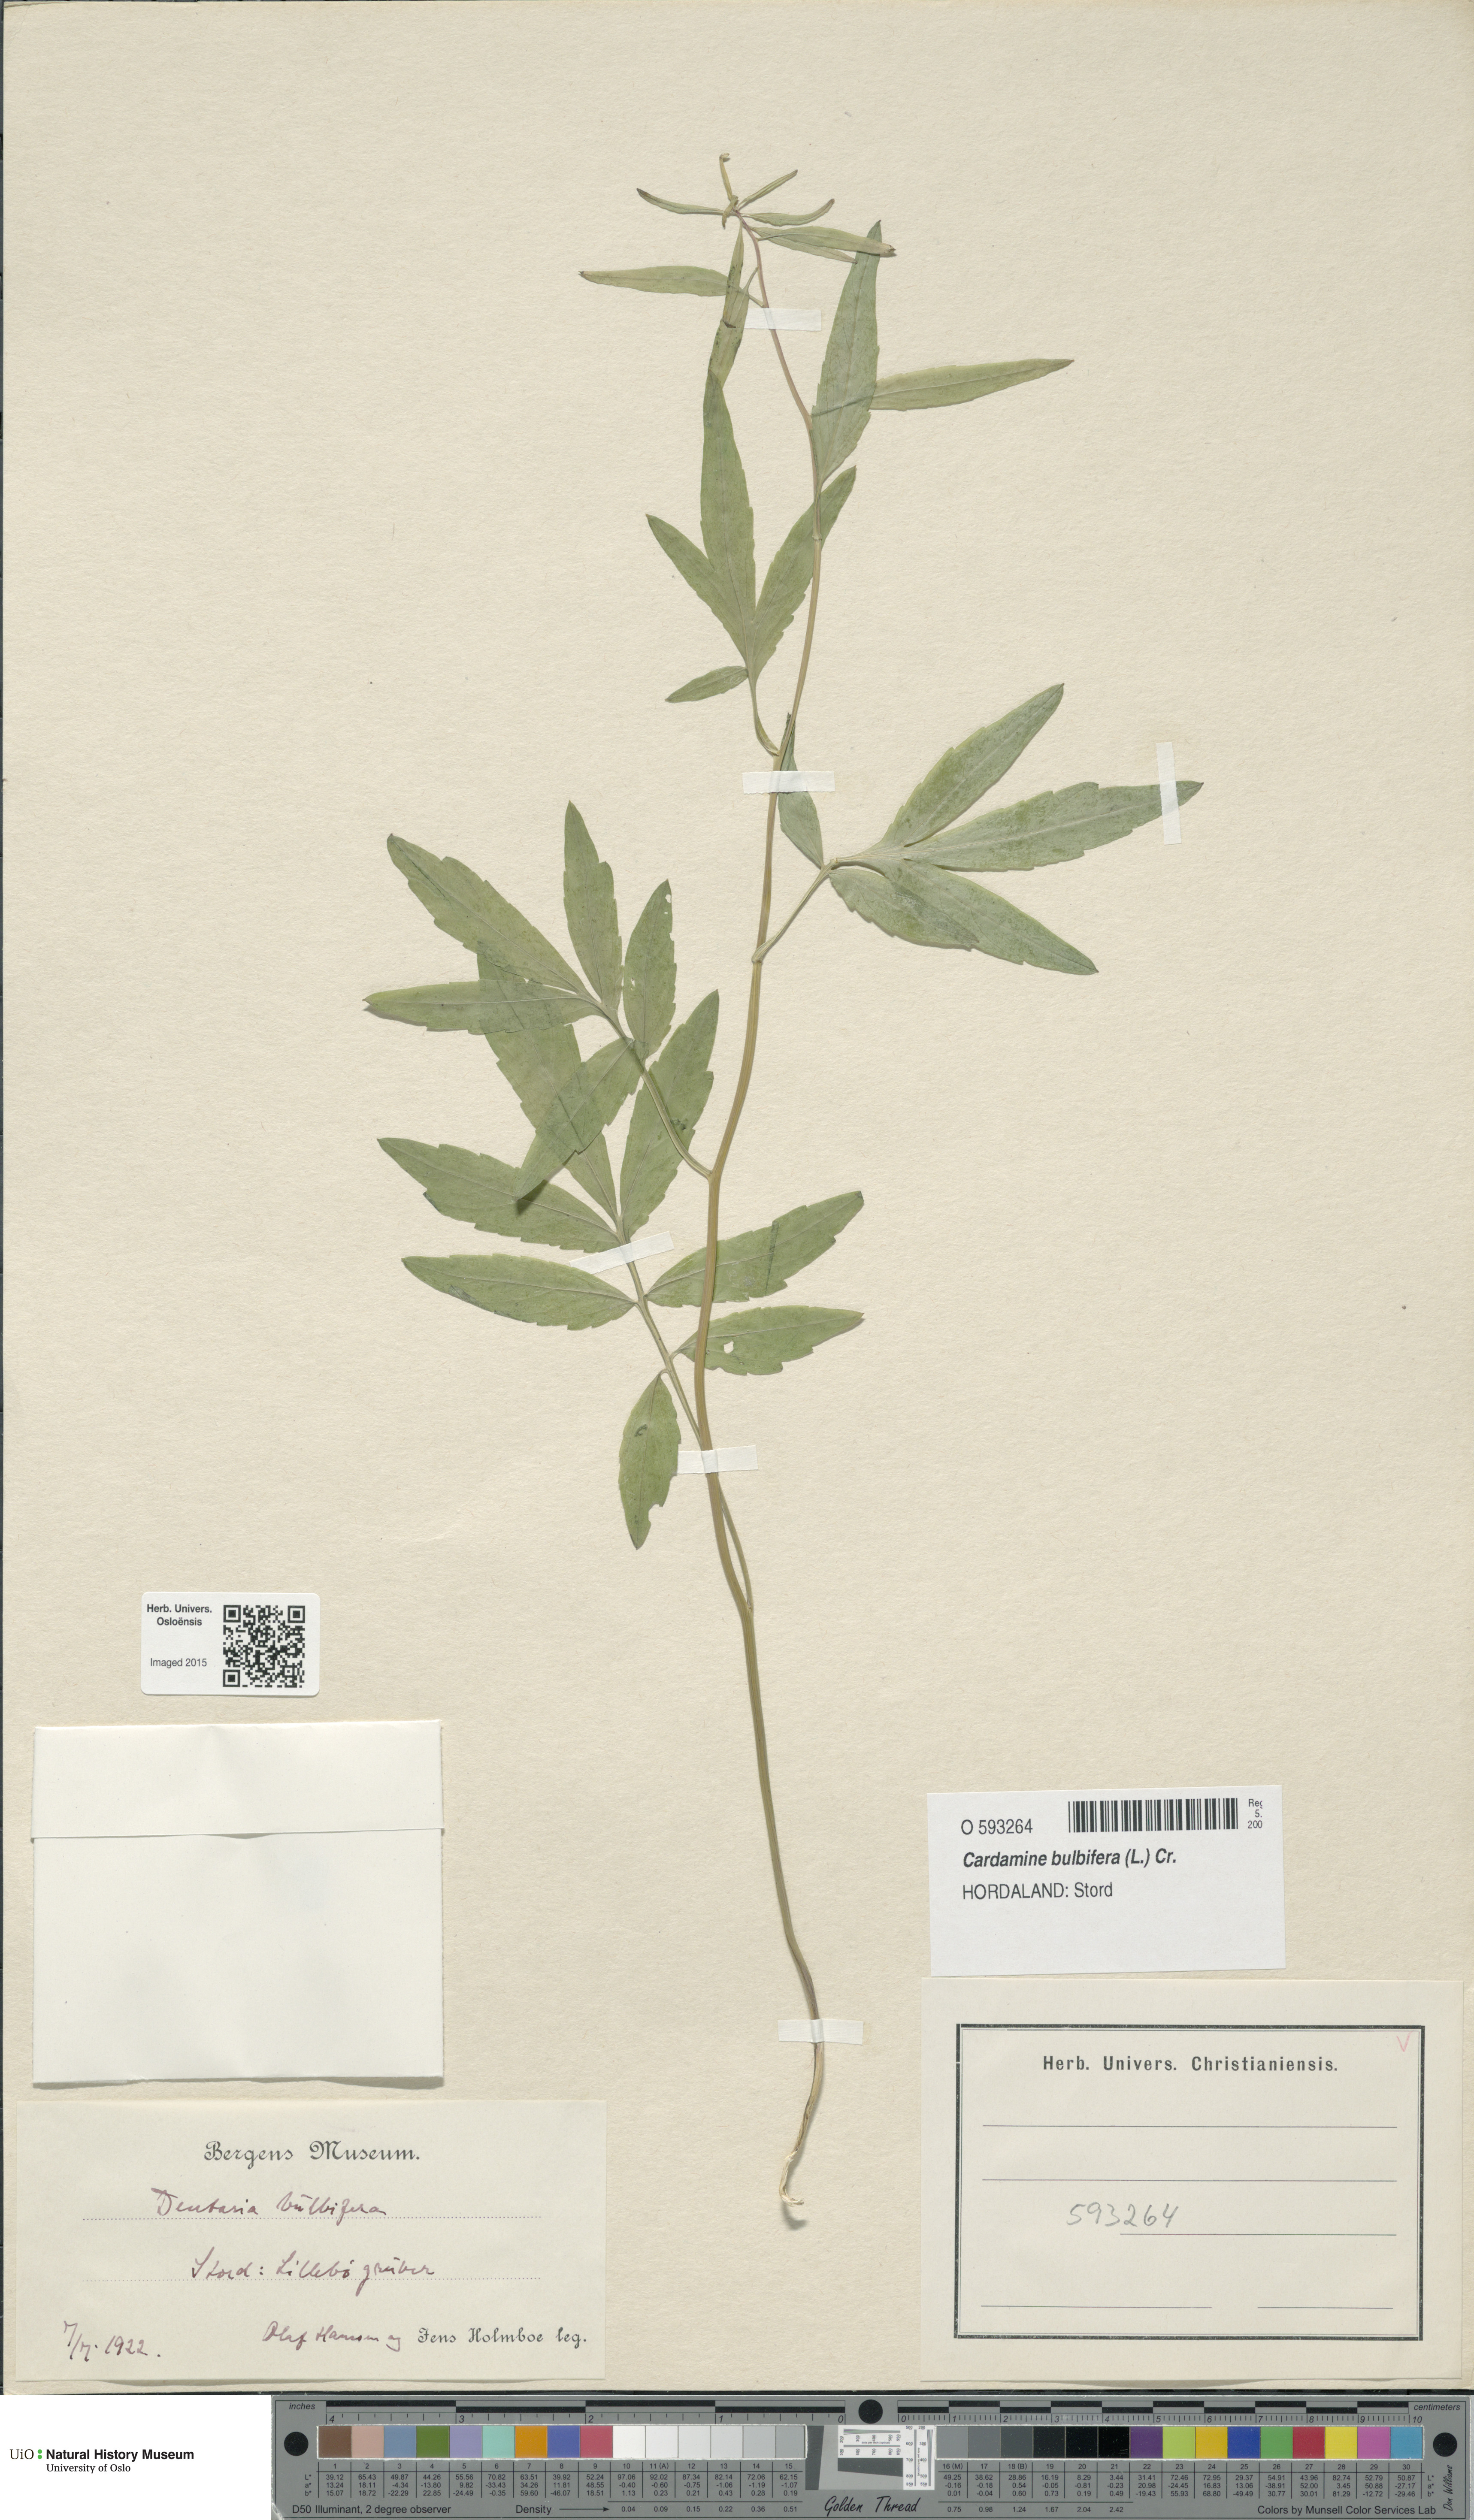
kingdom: Plantae
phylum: Tracheophyta
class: Magnoliopsida
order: Brassicales
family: Brassicaceae
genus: Cardamine
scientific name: Cardamine bulbifera
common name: Coralroot bittercress
